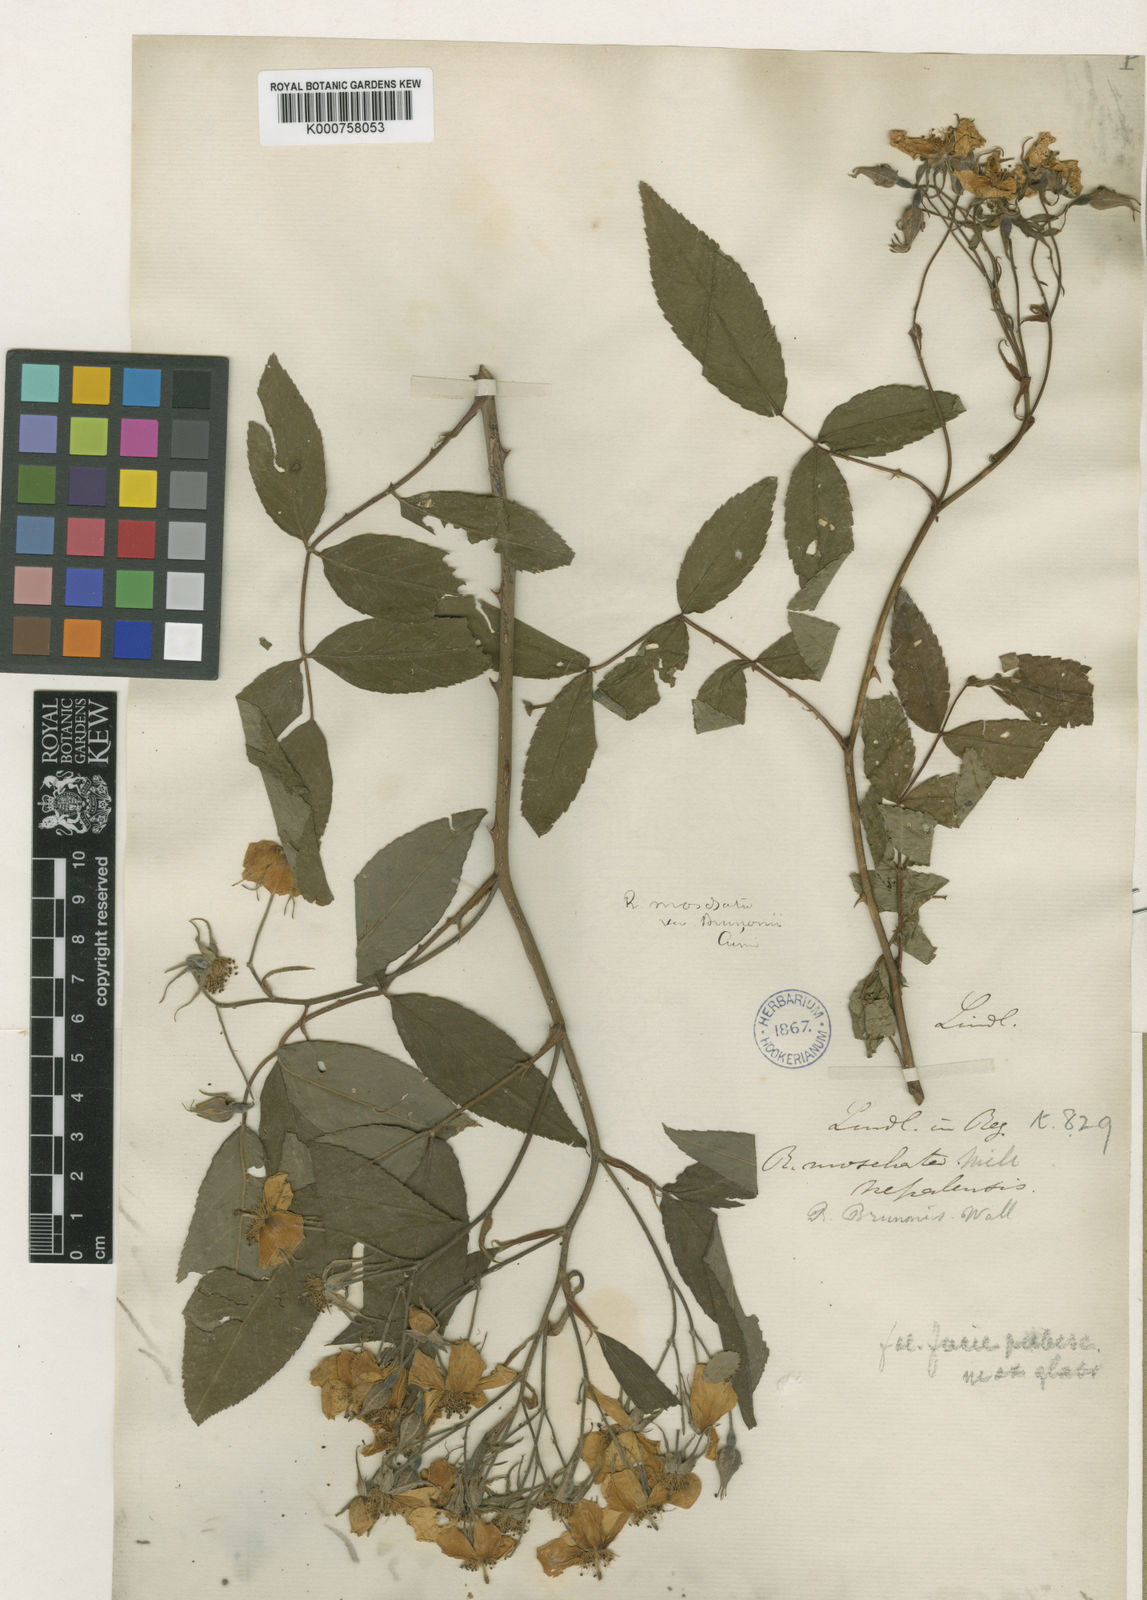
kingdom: Plantae
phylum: Tracheophyta
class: Magnoliopsida
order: Rosales
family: Rosaceae
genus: Rosa
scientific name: Rosa moschata
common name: Musk rose
